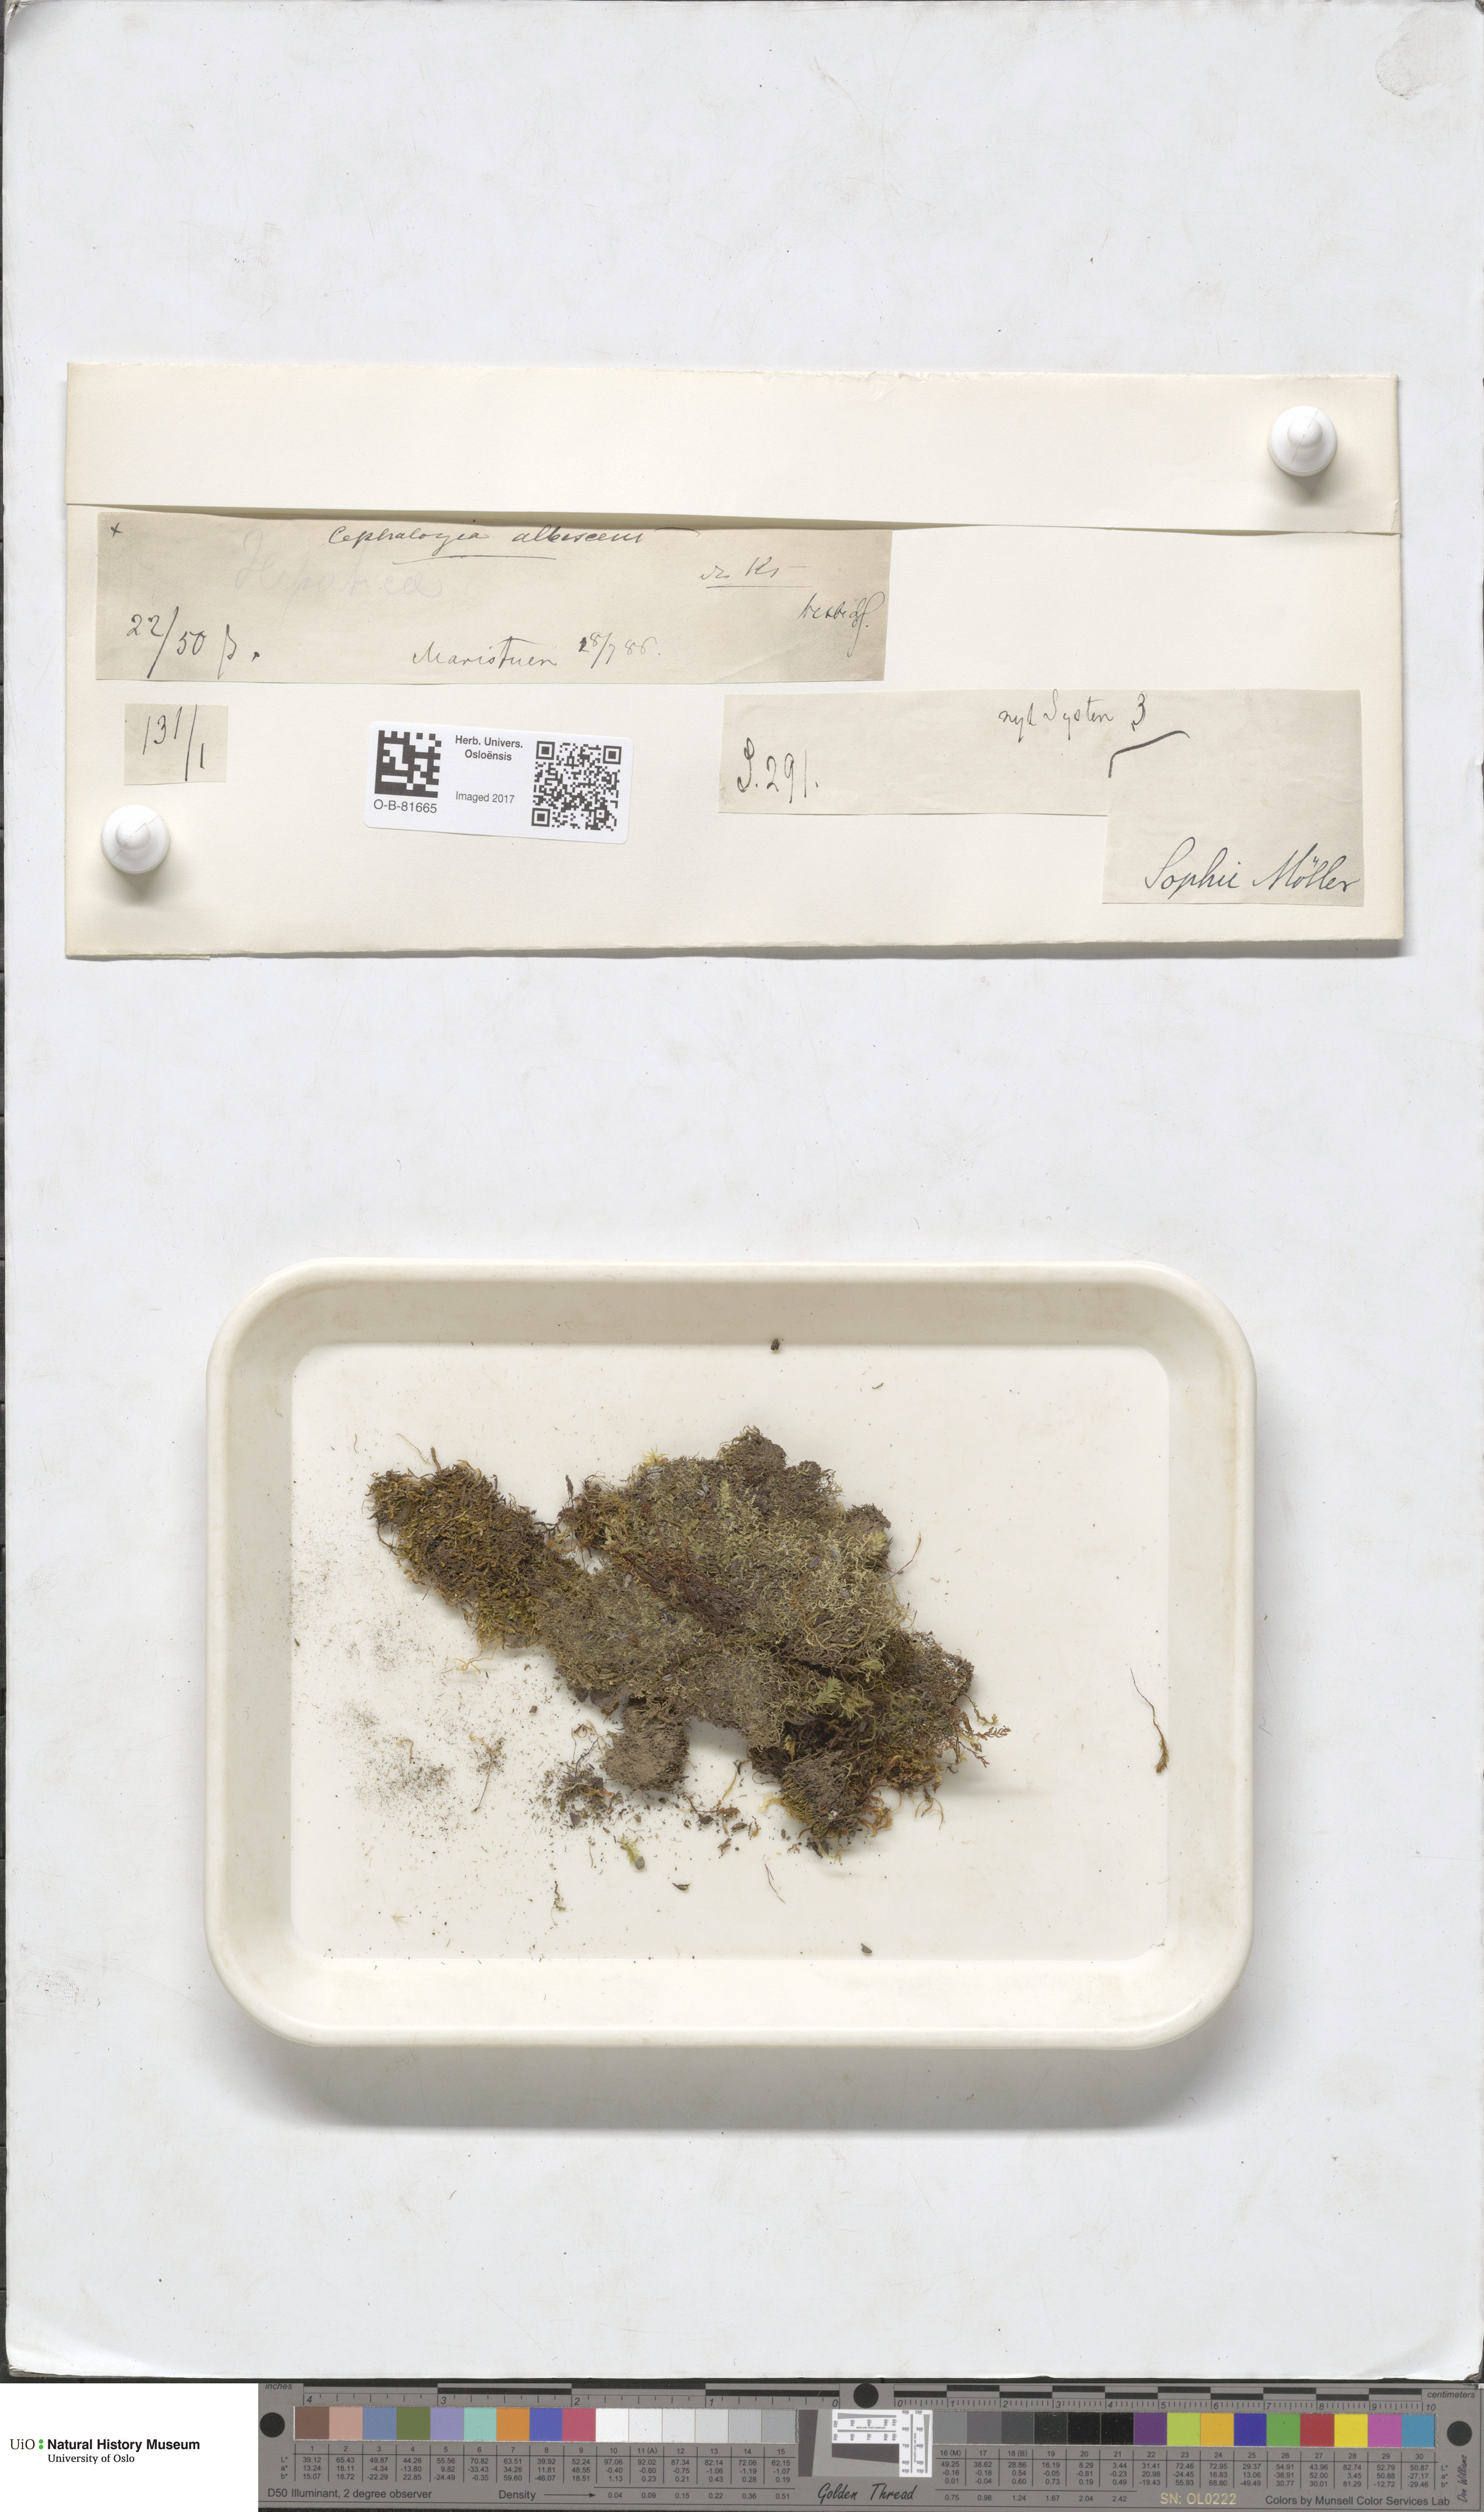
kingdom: Plantae
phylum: Marchantiophyta
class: Jungermanniopsida
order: Jungermanniales
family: Cephaloziaceae
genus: Fuscocephaloziopsis
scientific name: Fuscocephaloziopsis albescens
